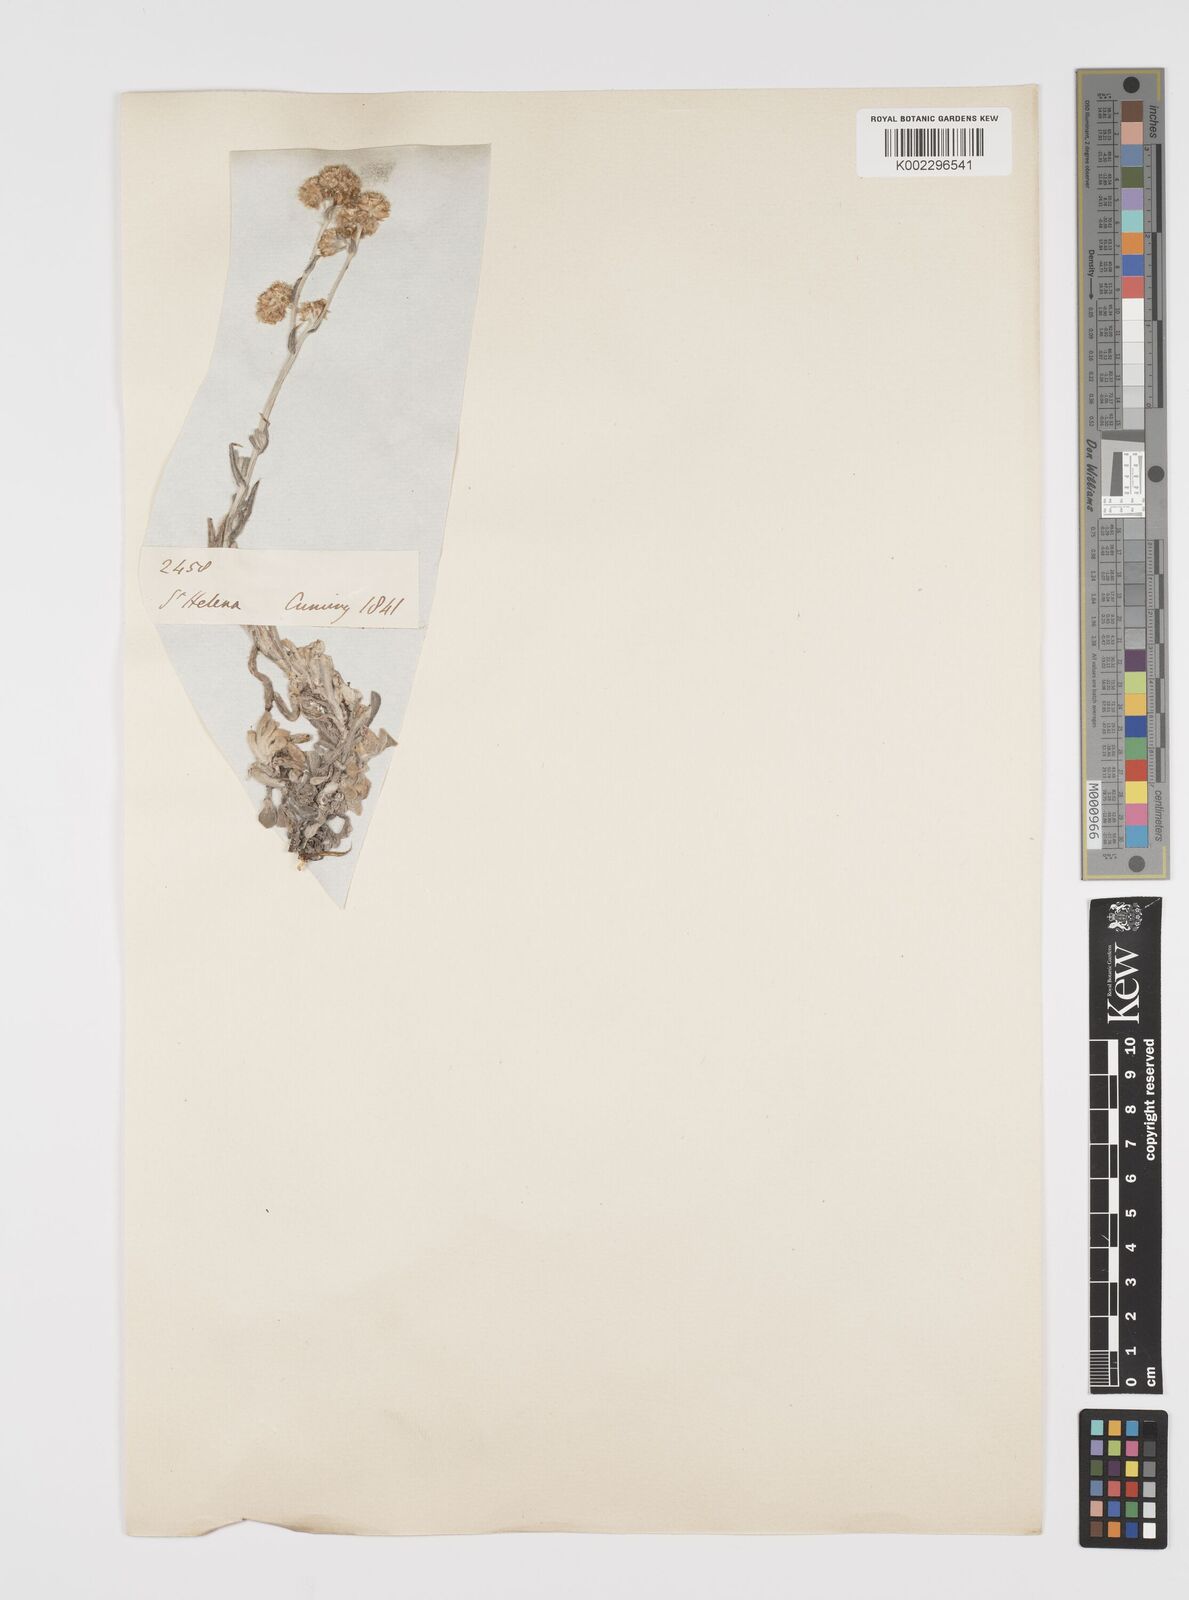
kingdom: Plantae
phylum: Tracheophyta
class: Magnoliopsida
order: Asterales
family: Asteraceae
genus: Helichrysum
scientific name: Helichrysum luteoalbum
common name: Daisy
